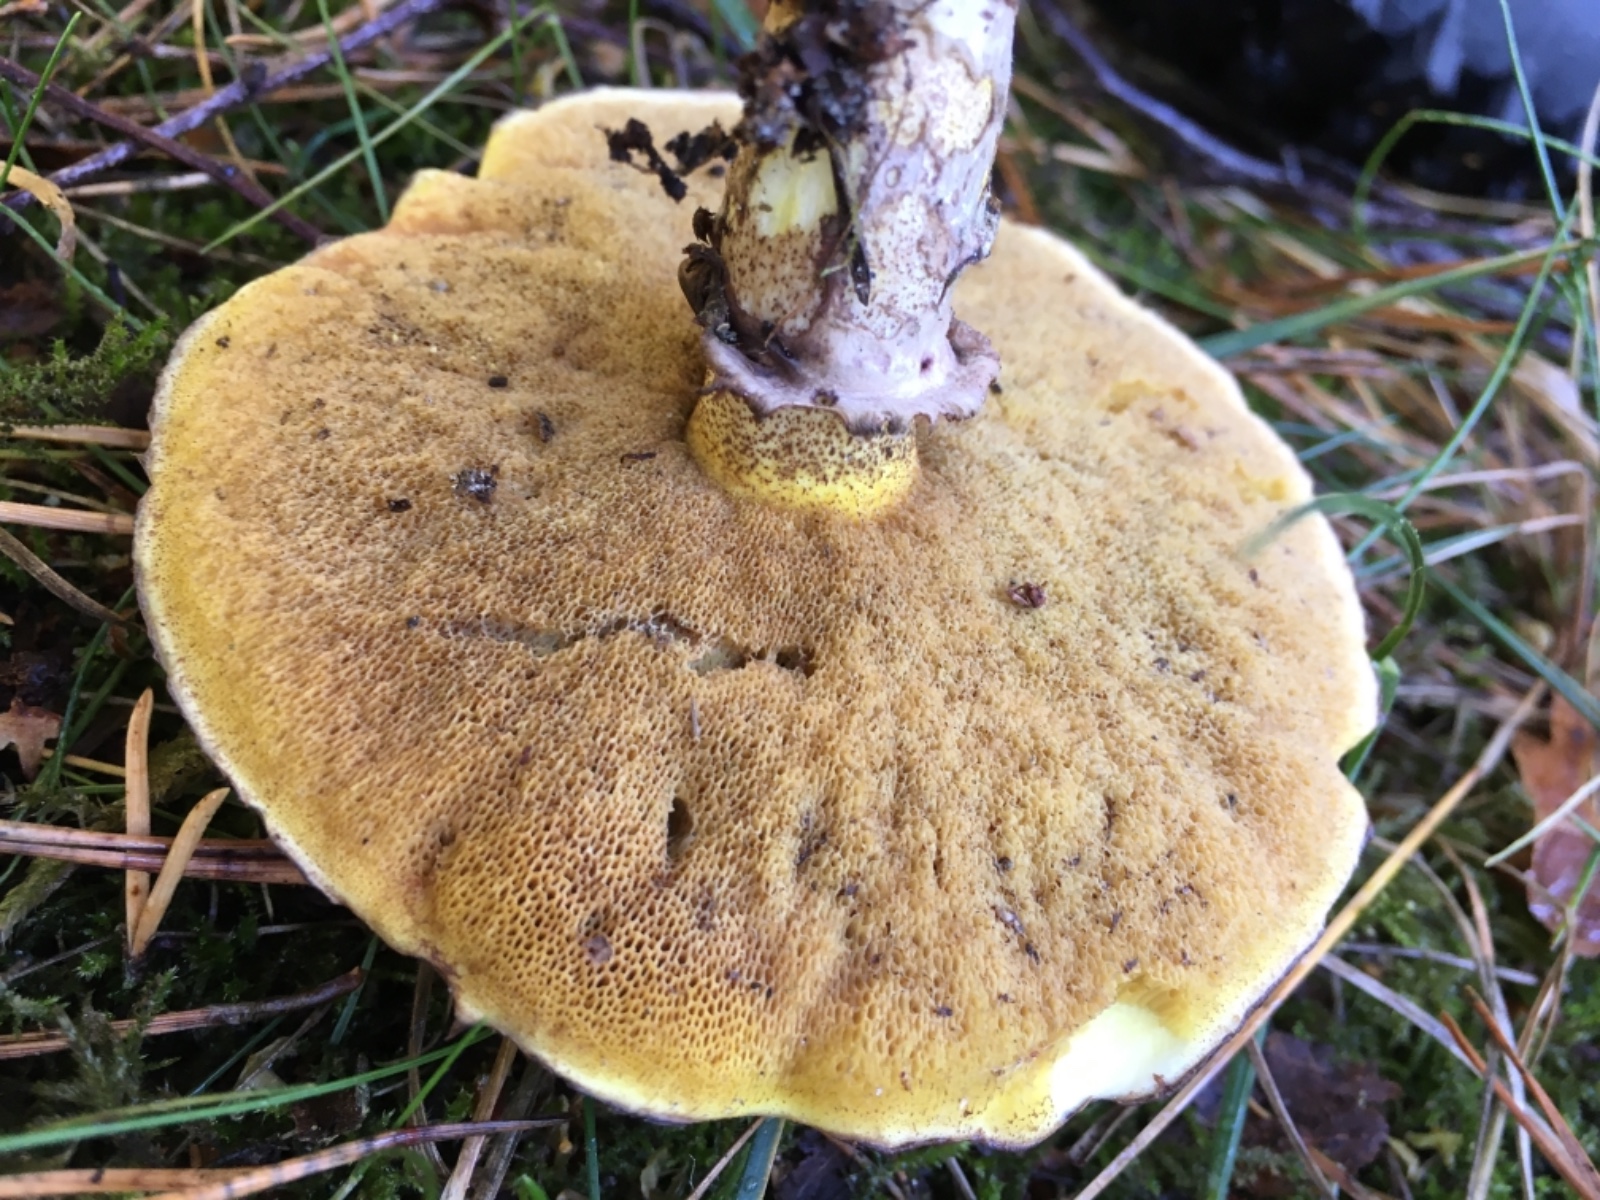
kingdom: Fungi
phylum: Basidiomycota
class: Agaricomycetes
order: Boletales
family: Suillaceae
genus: Suillus
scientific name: Suillus luteus
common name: brungul slimrørhat
